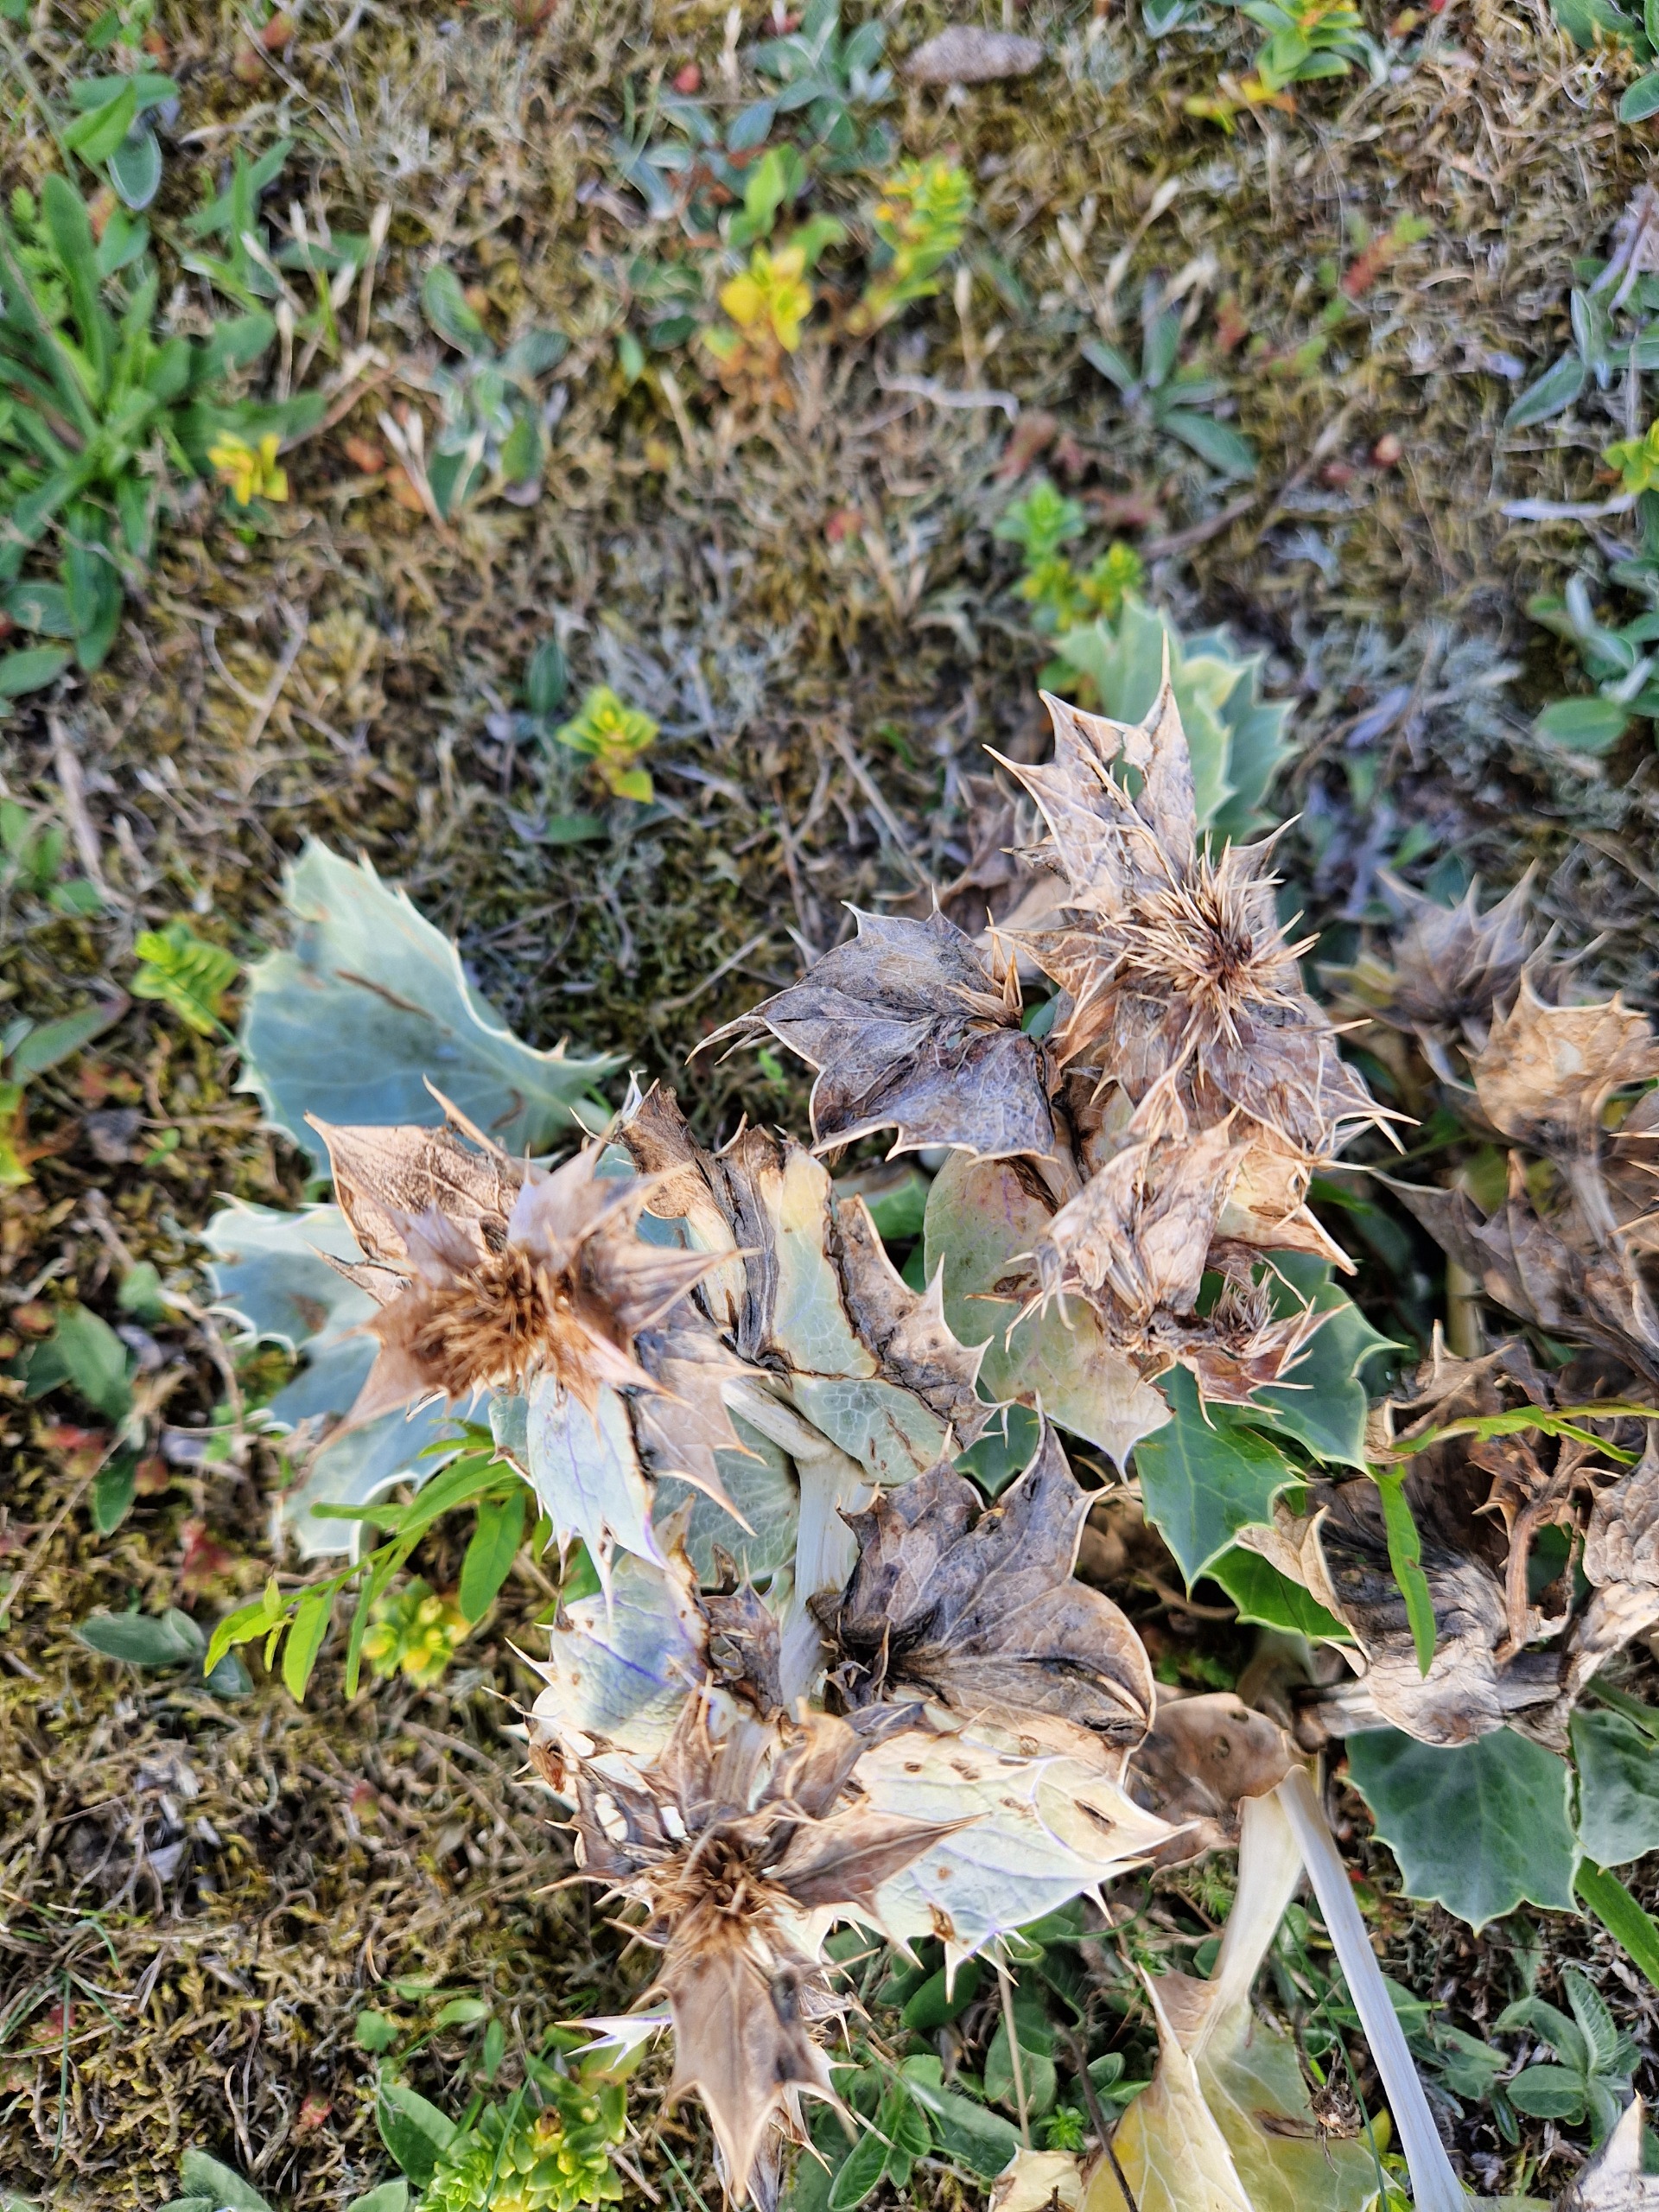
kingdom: Plantae
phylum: Tracheophyta
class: Magnoliopsida
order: Apiales
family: Apiaceae
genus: Eryngium
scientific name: Eryngium maritimum
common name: Strand-mandstro
